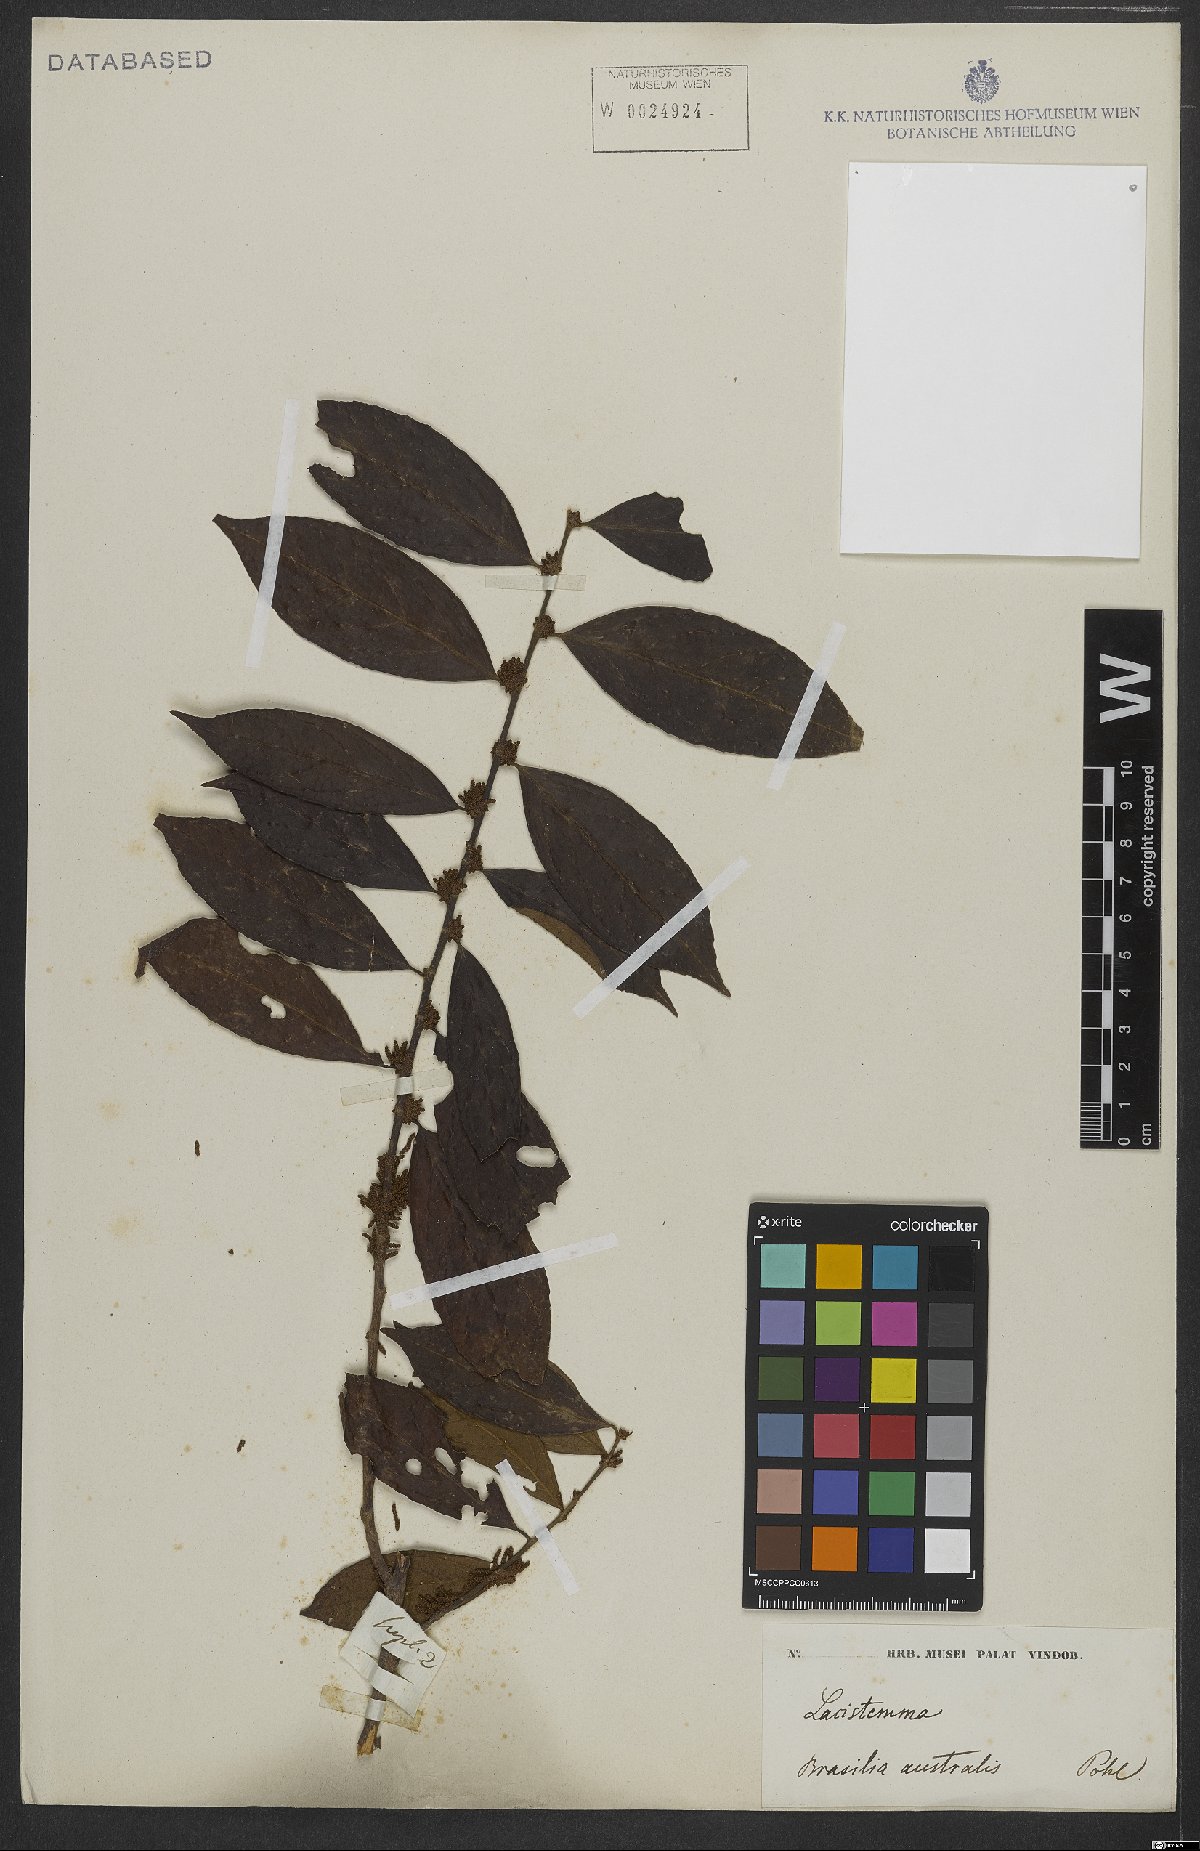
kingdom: Plantae
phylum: Tracheophyta
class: Magnoliopsida
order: Malpighiales
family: Lacistemataceae
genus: Lacistema
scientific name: Lacistema
